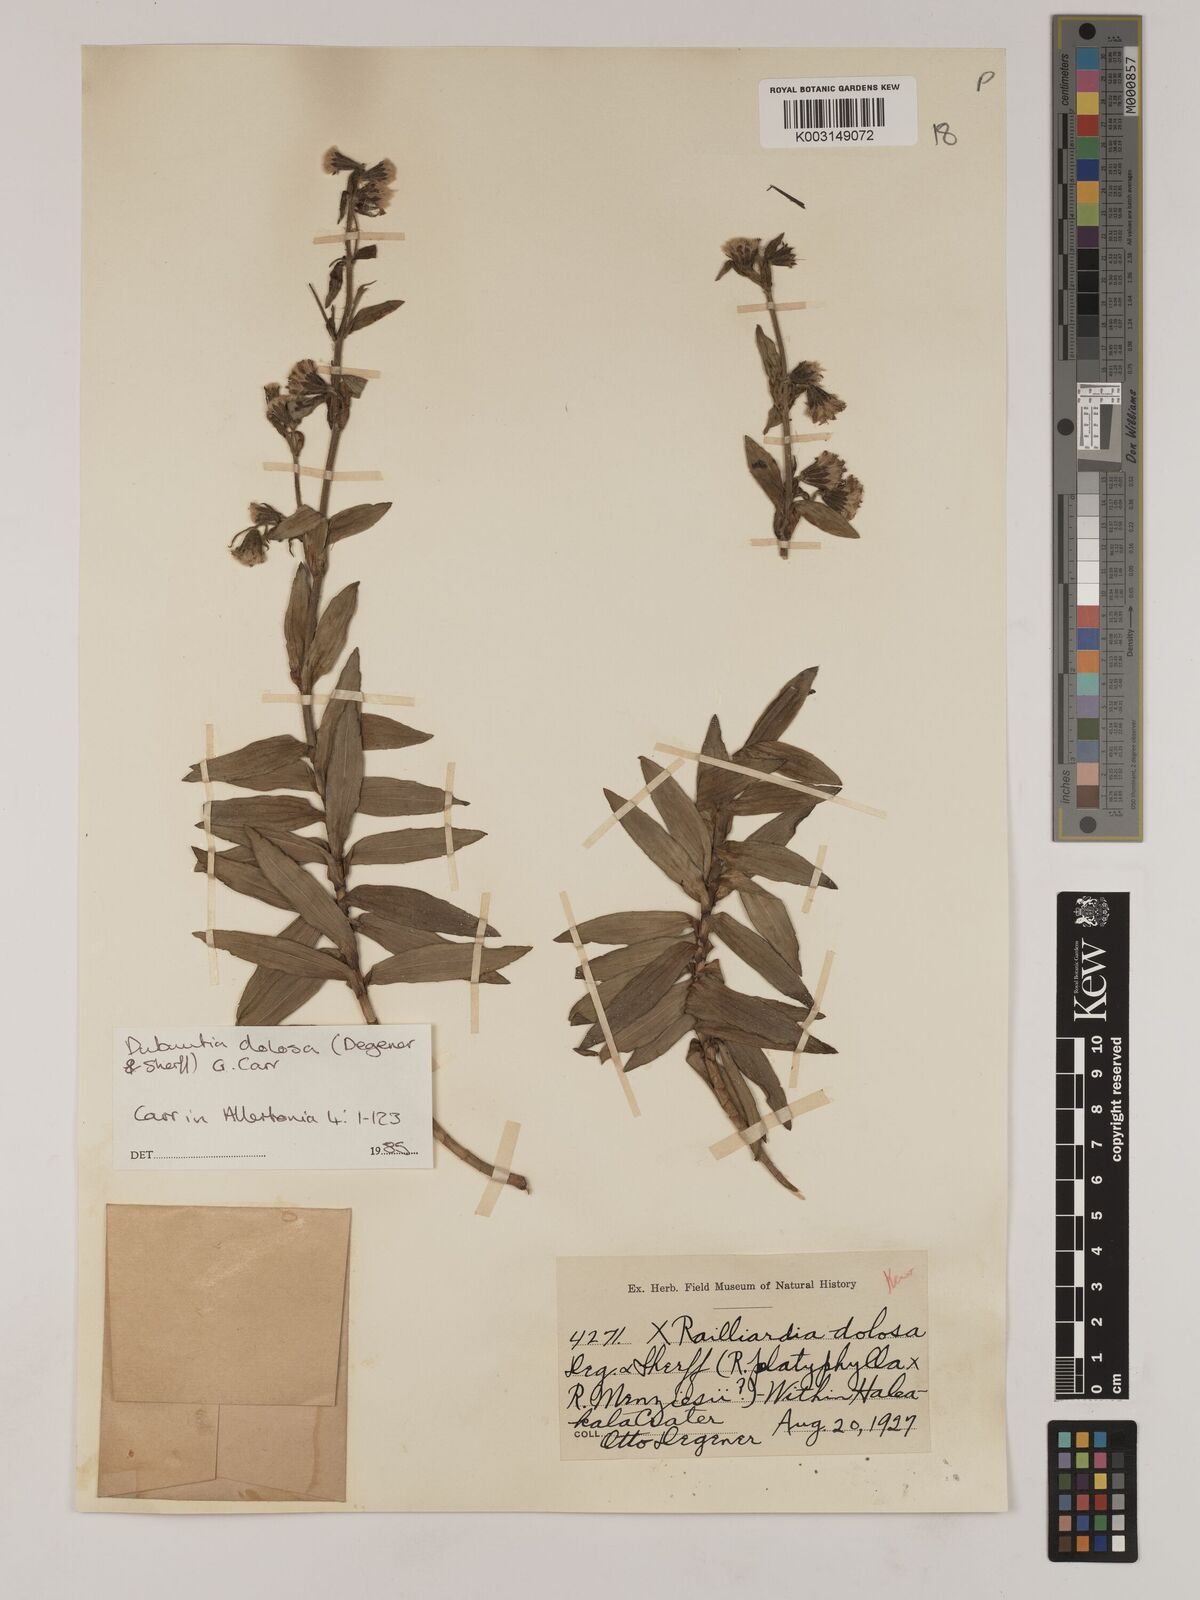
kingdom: Plantae
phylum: Tracheophyta
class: Magnoliopsida
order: Asterales
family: Asteraceae
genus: Dubautia
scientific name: Dubautia waianapanapaensis
